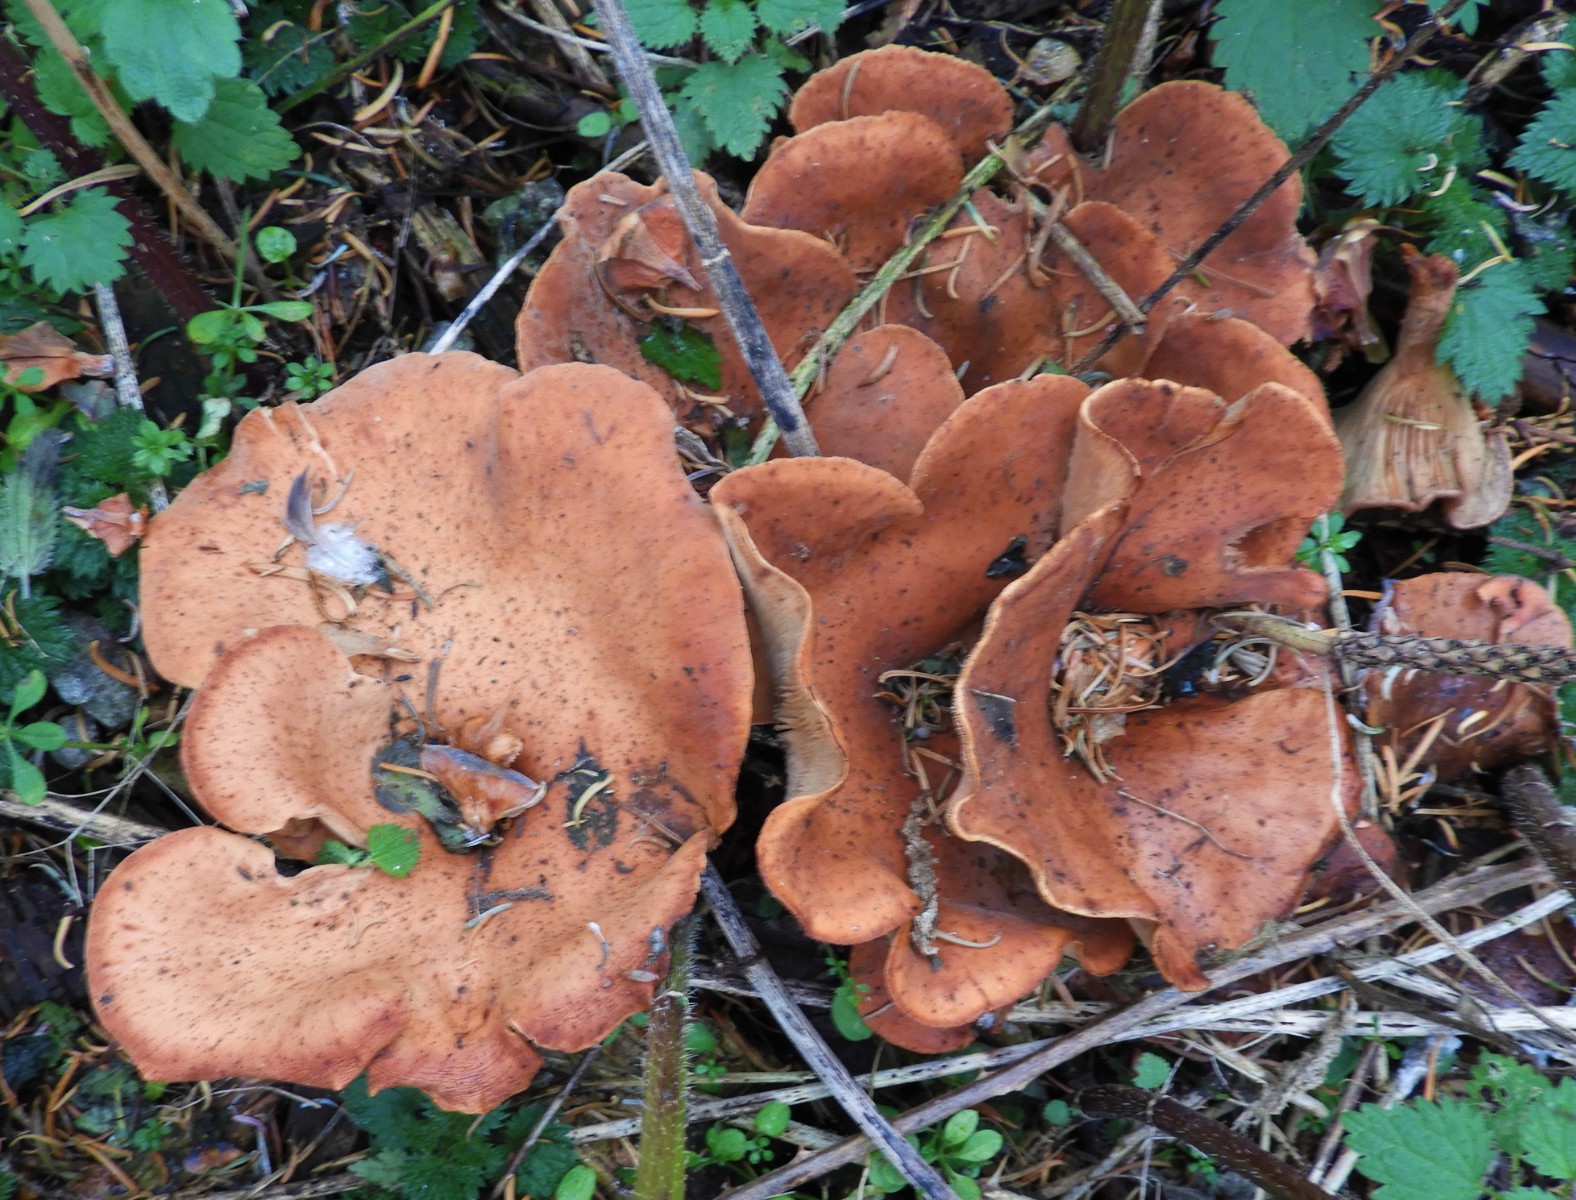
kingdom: Fungi
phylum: Basidiomycota
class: Agaricomycetes
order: Agaricales
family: Tricholomataceae
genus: Paralepista
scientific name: Paralepista flaccida
